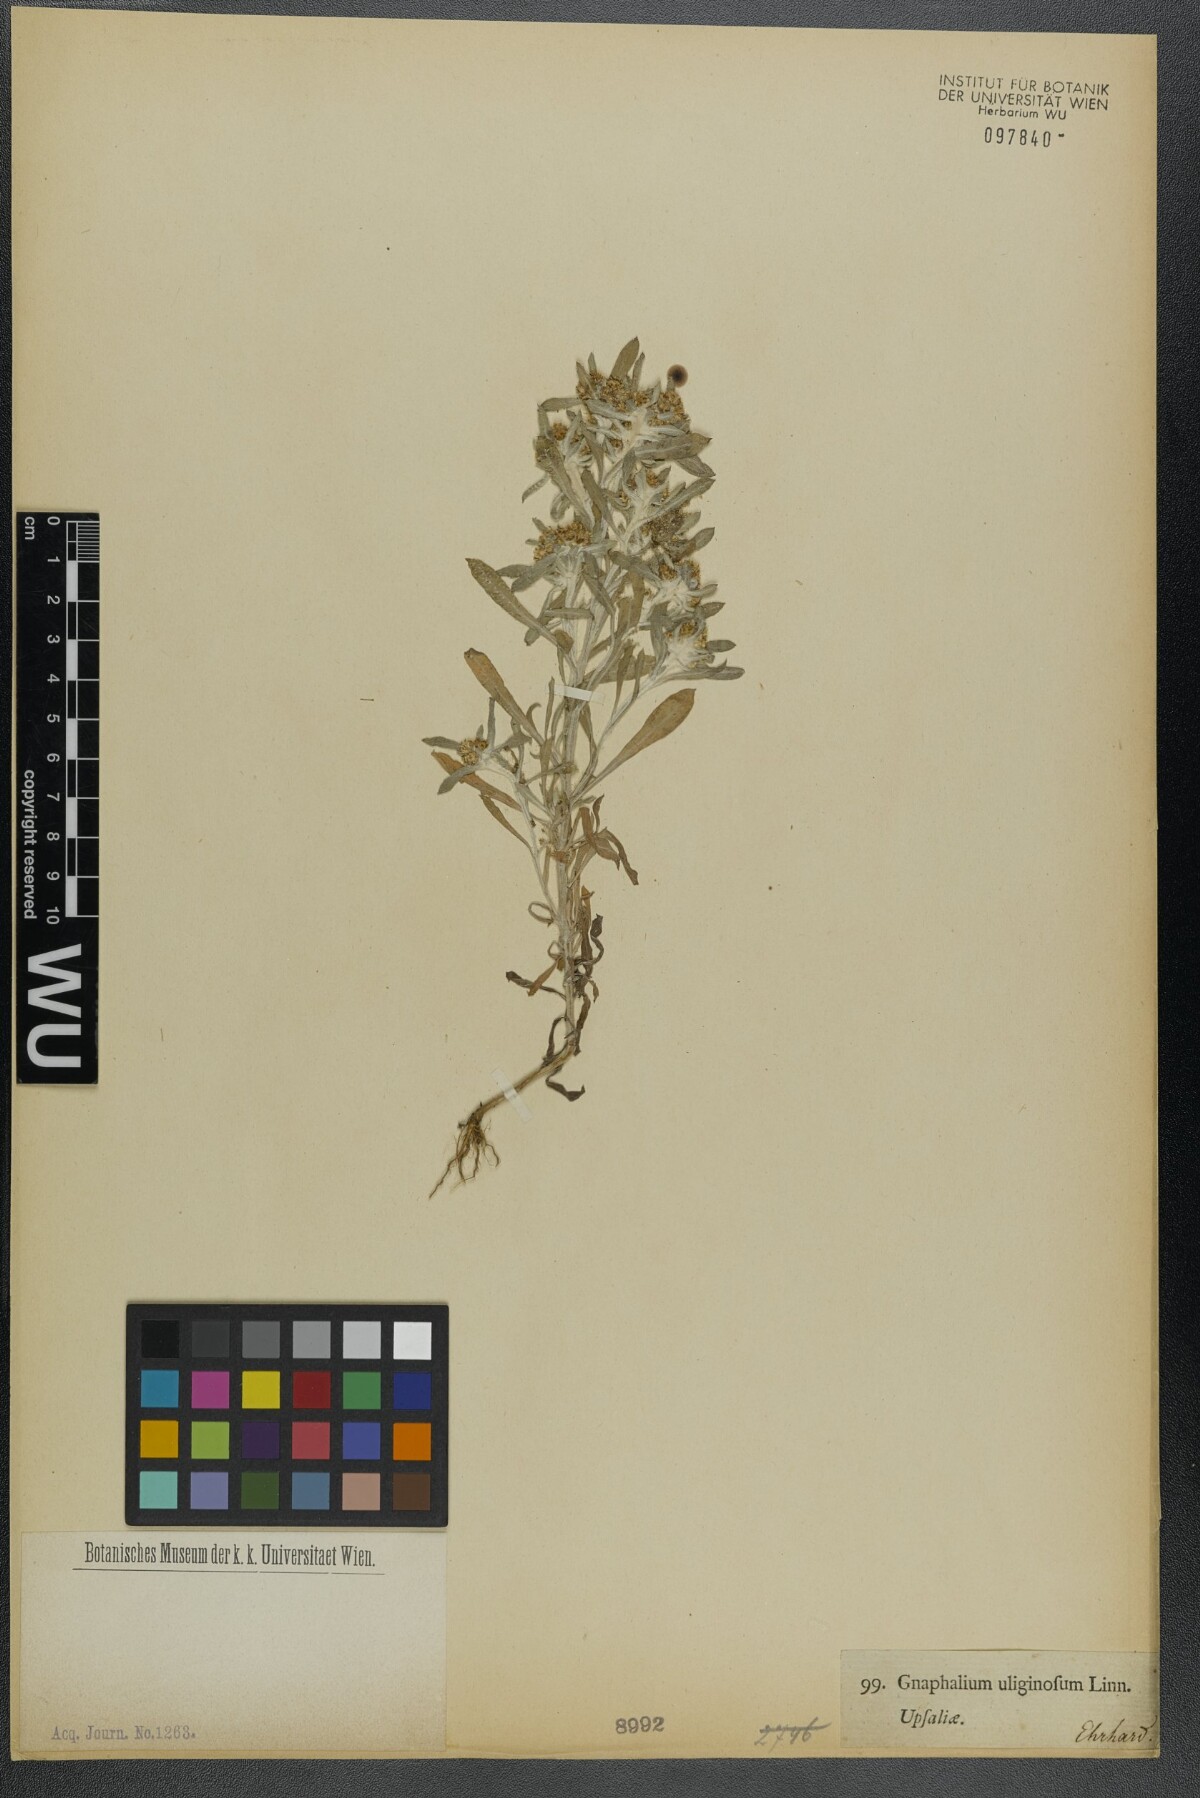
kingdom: Plantae
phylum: Tracheophyta
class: Magnoliopsida
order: Asterales
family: Asteraceae
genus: Gnaphalium
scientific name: Gnaphalium uliginosum
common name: Marsh cudweed
